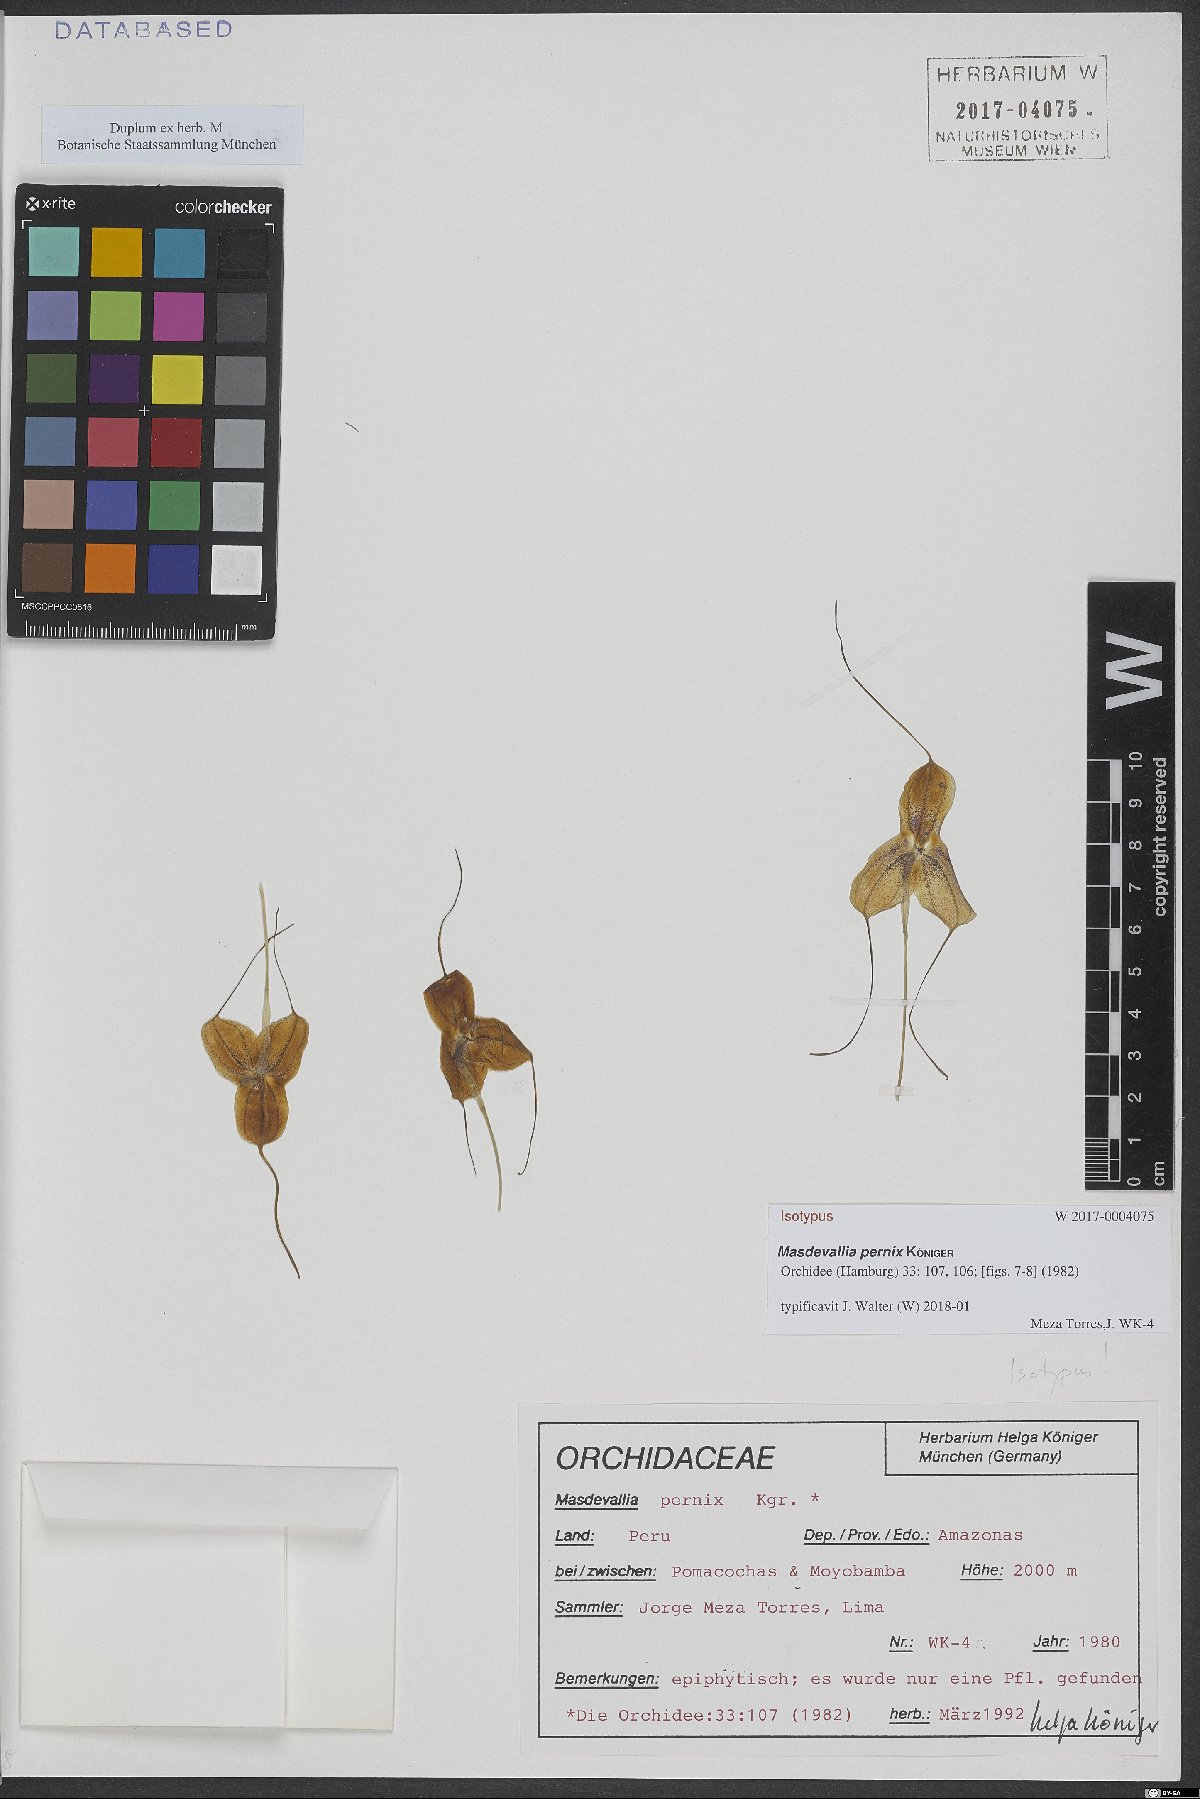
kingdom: Plantae
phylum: Tracheophyta
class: Liliopsida
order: Asparagales
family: Orchidaceae
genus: Masdevallia
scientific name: Masdevallia pernix
